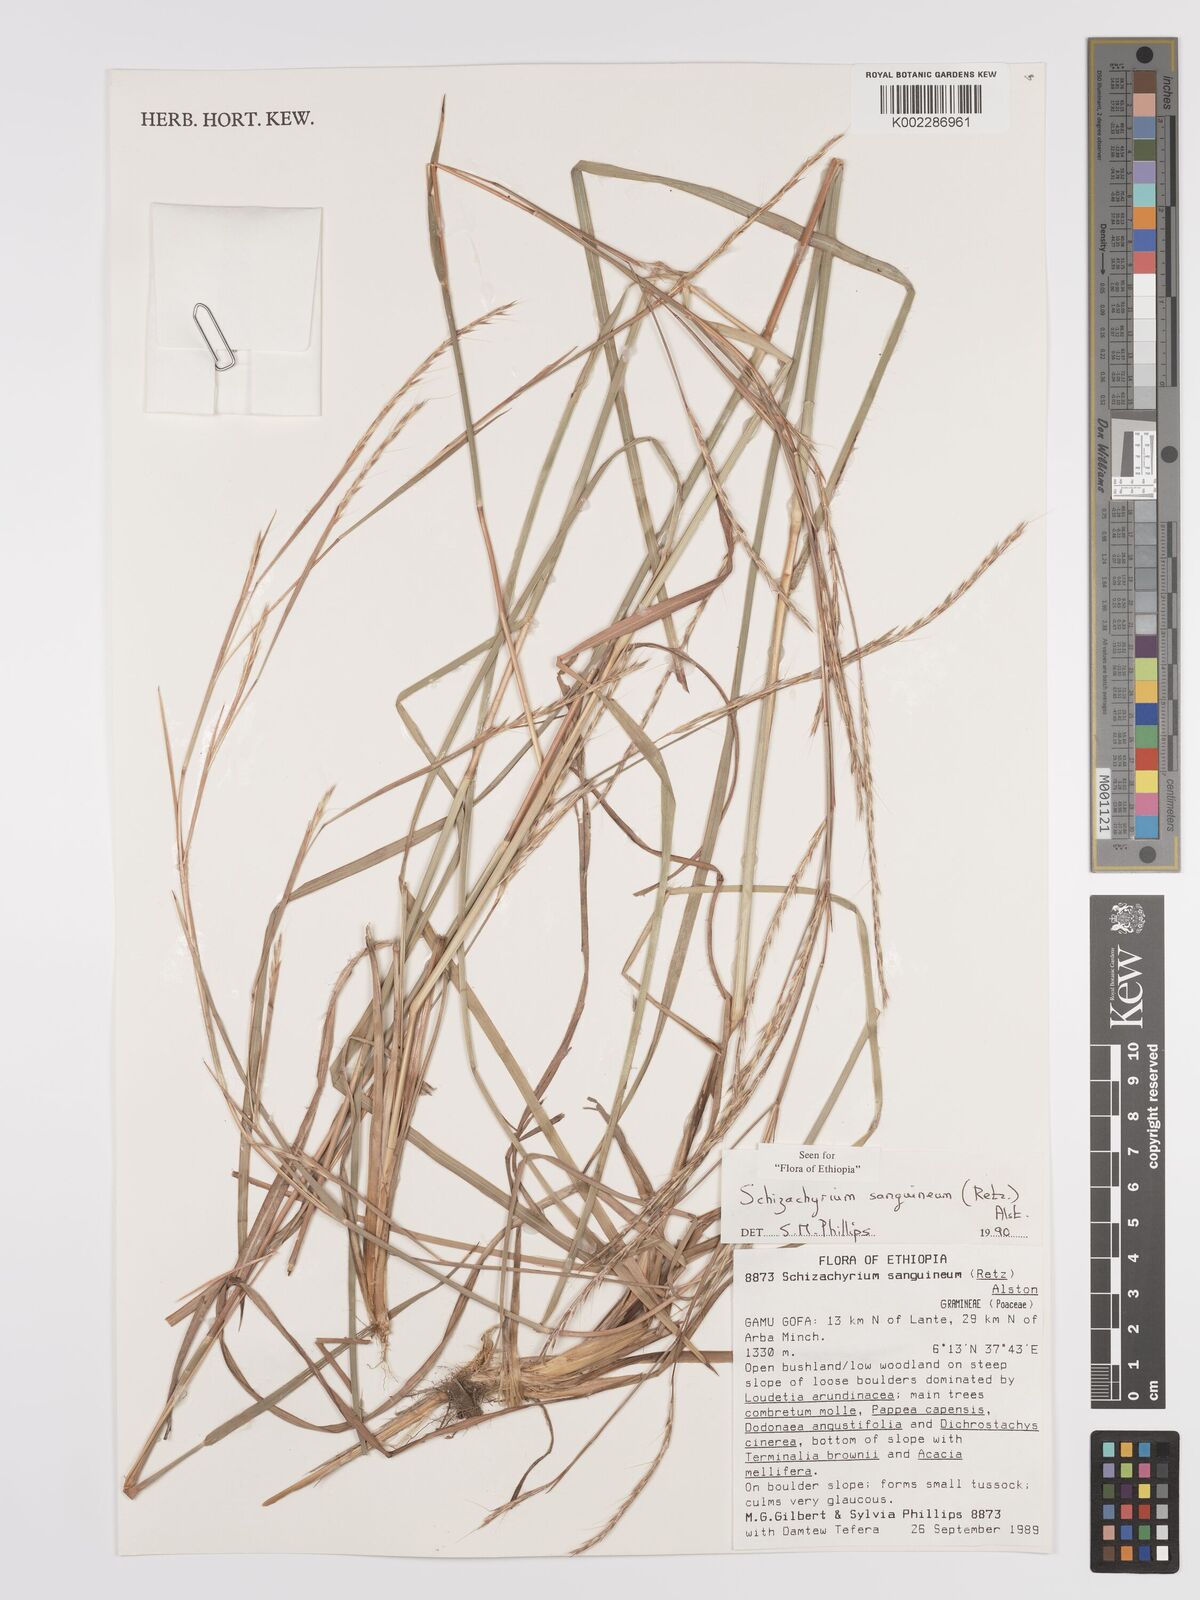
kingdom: Plantae
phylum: Tracheophyta
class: Liliopsida
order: Poales
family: Poaceae
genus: Schizachyrium
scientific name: Schizachyrium sanguineum
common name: Crimson bluestem
